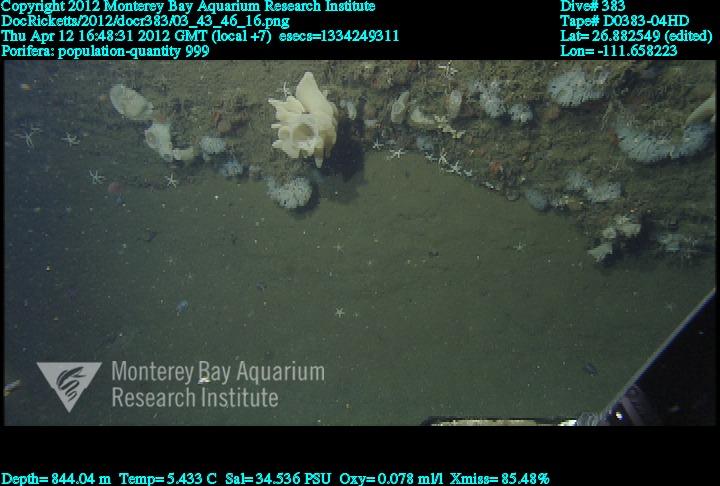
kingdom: Animalia
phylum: Porifera
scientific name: Porifera
